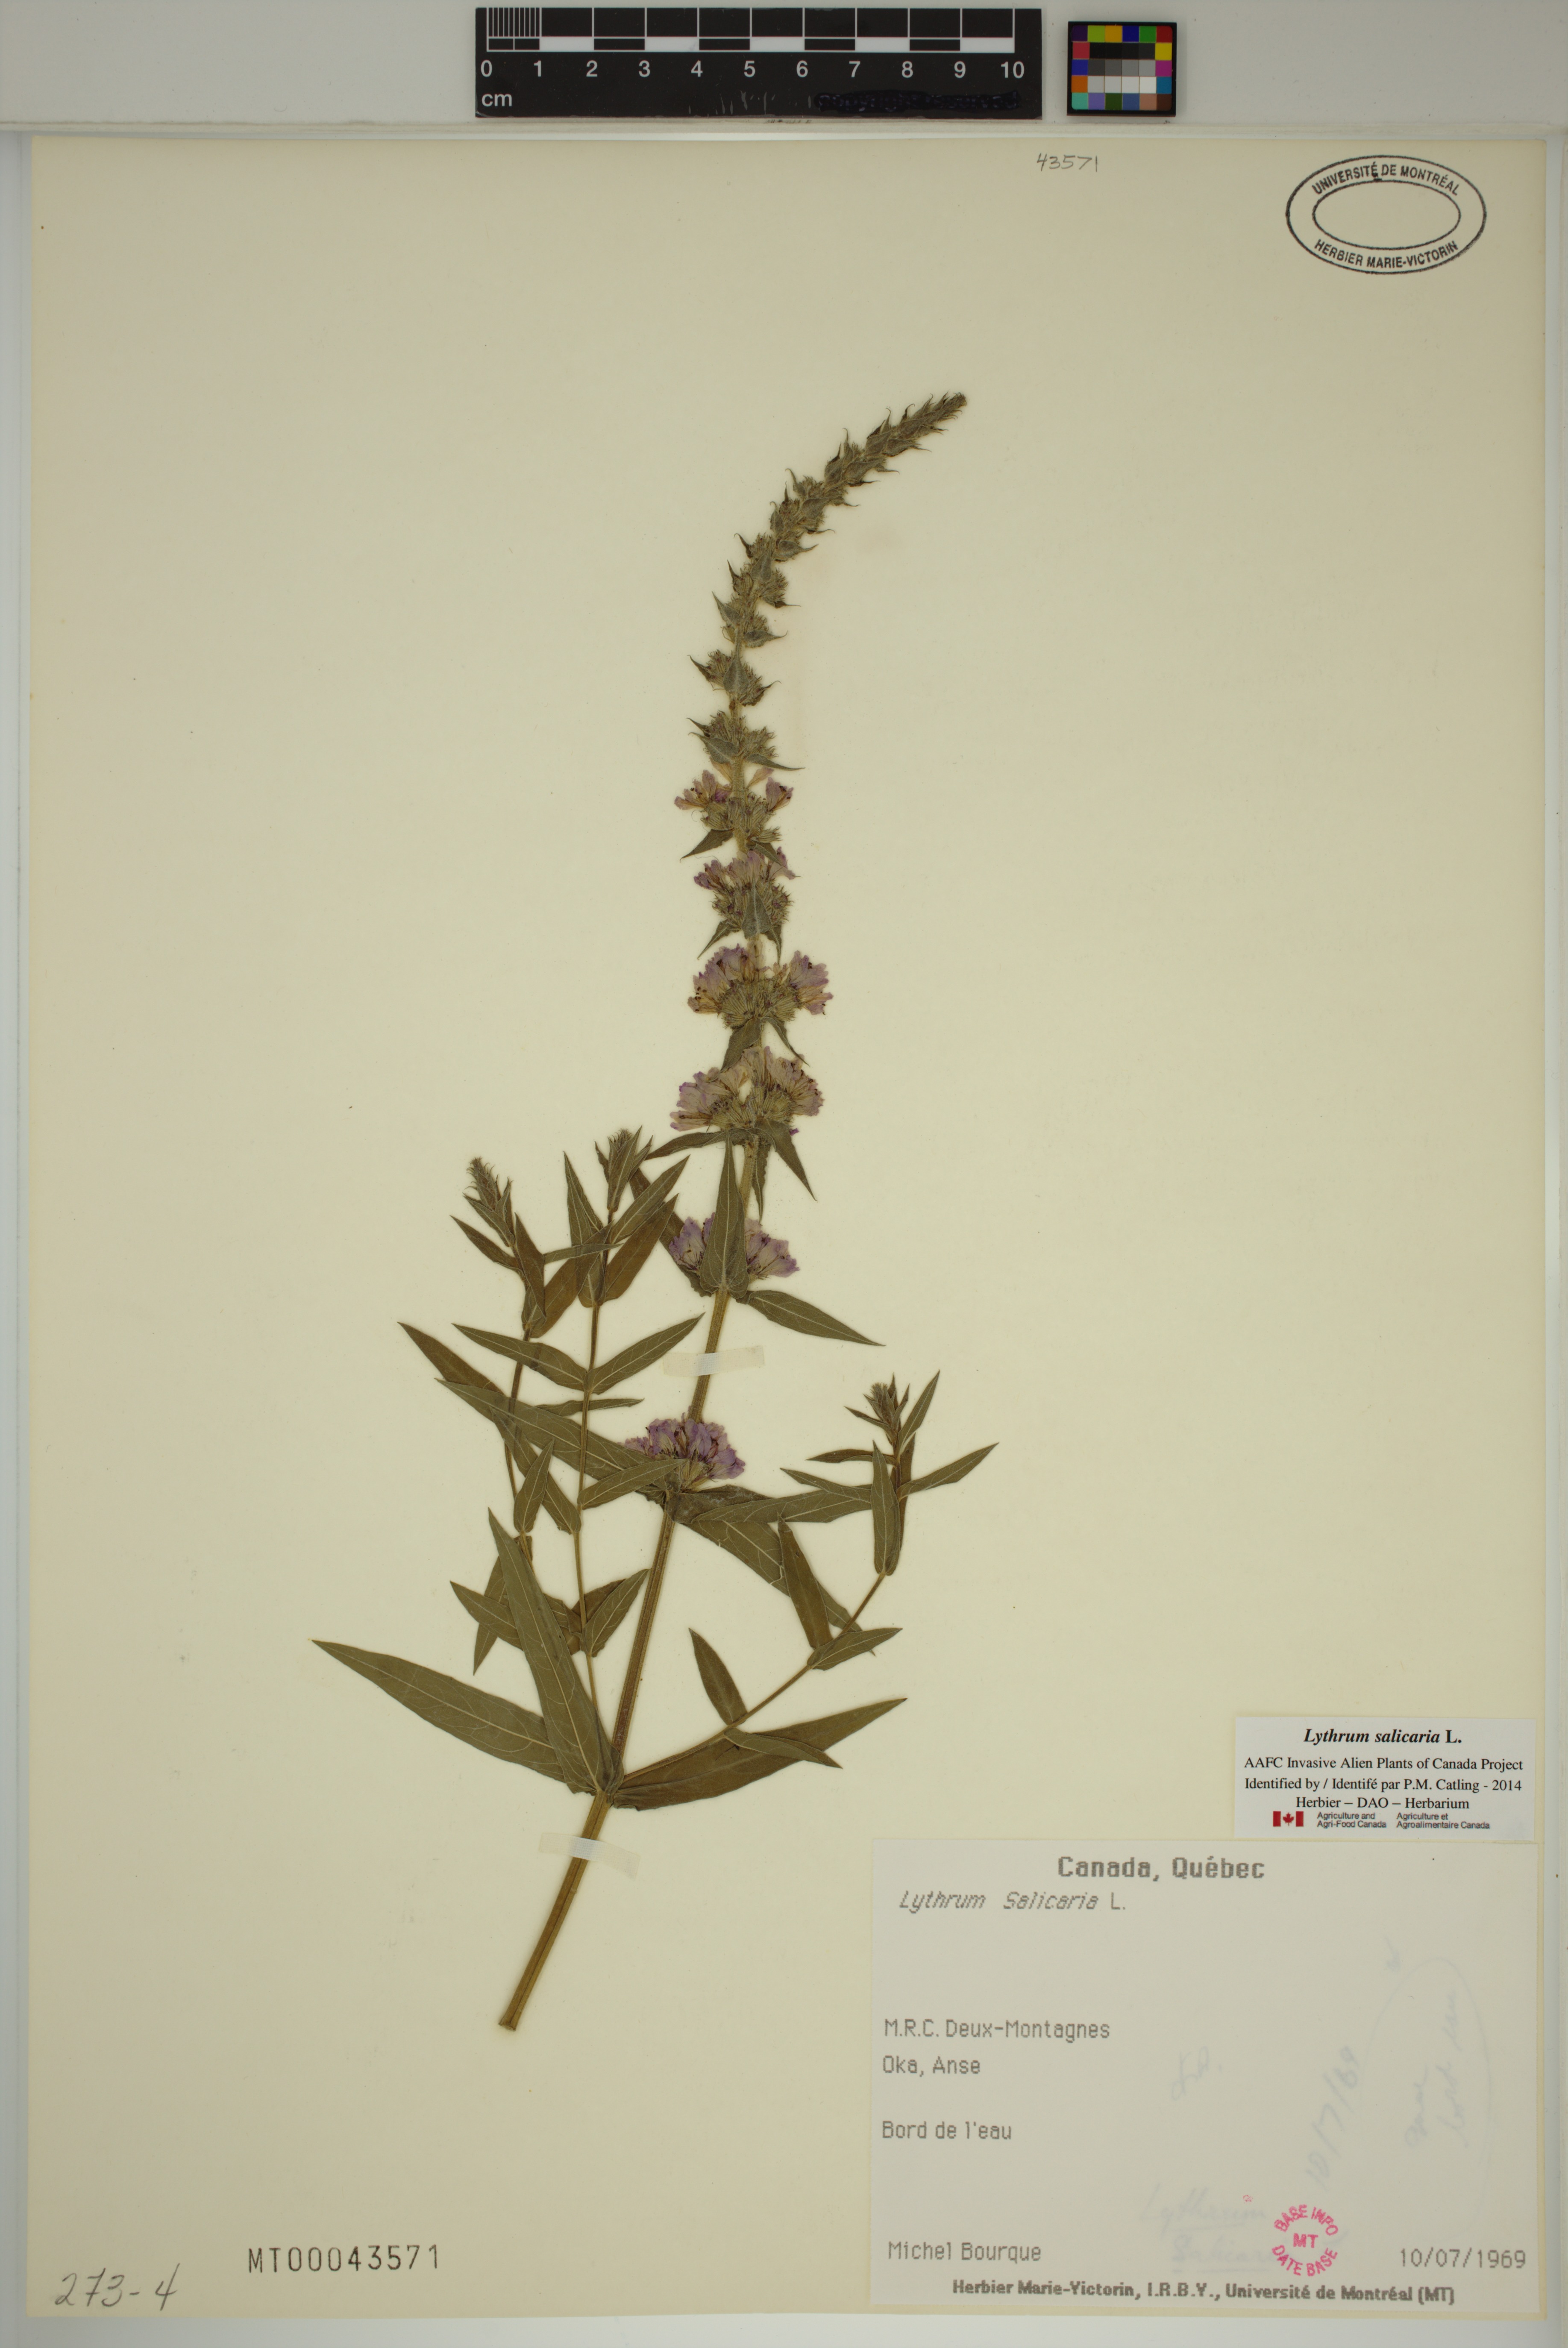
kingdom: Plantae
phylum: Tracheophyta
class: Magnoliopsida
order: Myrtales
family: Lythraceae
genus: Lythrum
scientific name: Lythrum salicaria
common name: Purple loosestrife
